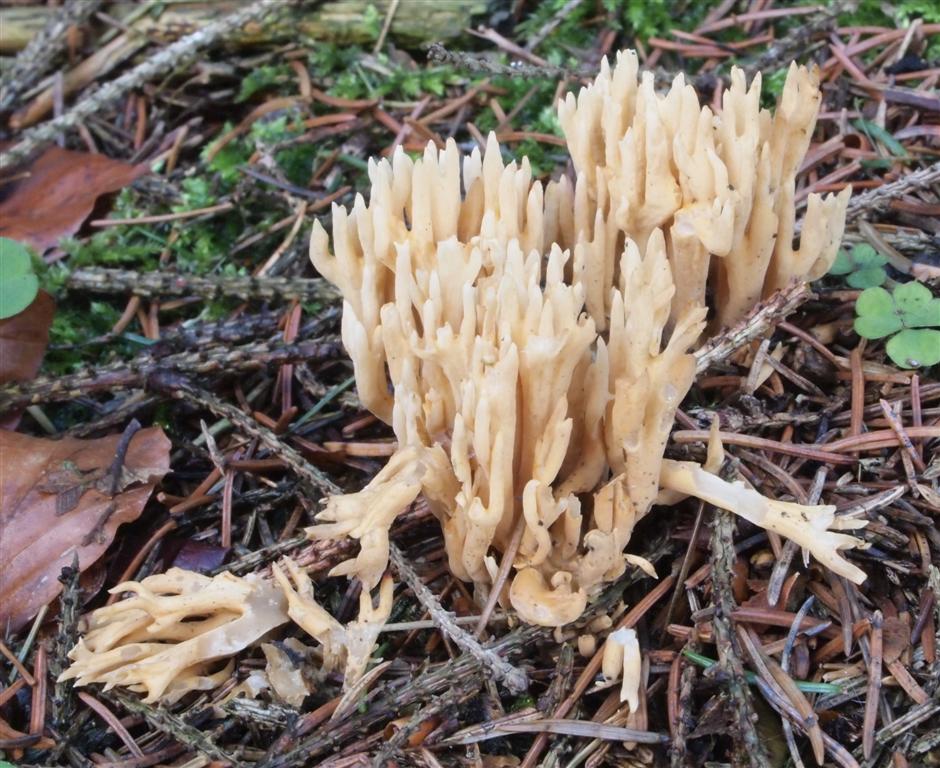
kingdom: Fungi
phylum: Basidiomycota
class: Agaricomycetes
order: Gomphales
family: Gomphaceae
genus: Phaeoclavulina
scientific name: Phaeoclavulina eumorpha
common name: gran-koralsvamp
